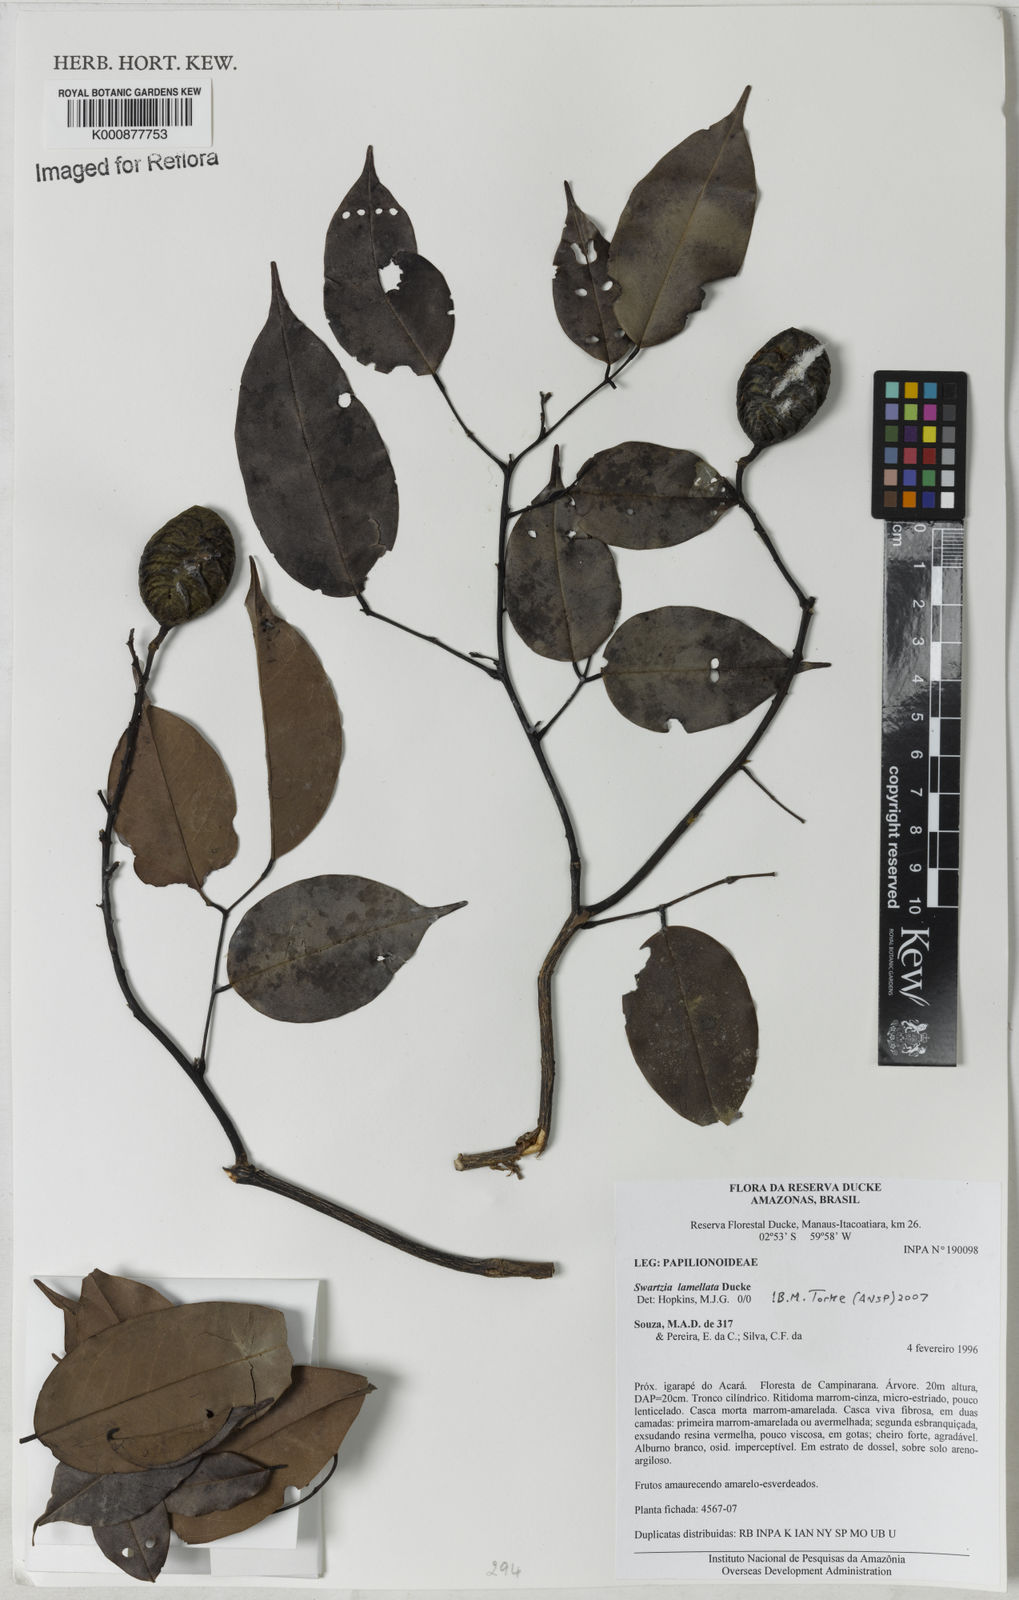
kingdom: Plantae
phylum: Tracheophyta
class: Magnoliopsida
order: Fabales
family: Fabaceae
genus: Swartzia
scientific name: Swartzia lamellata
